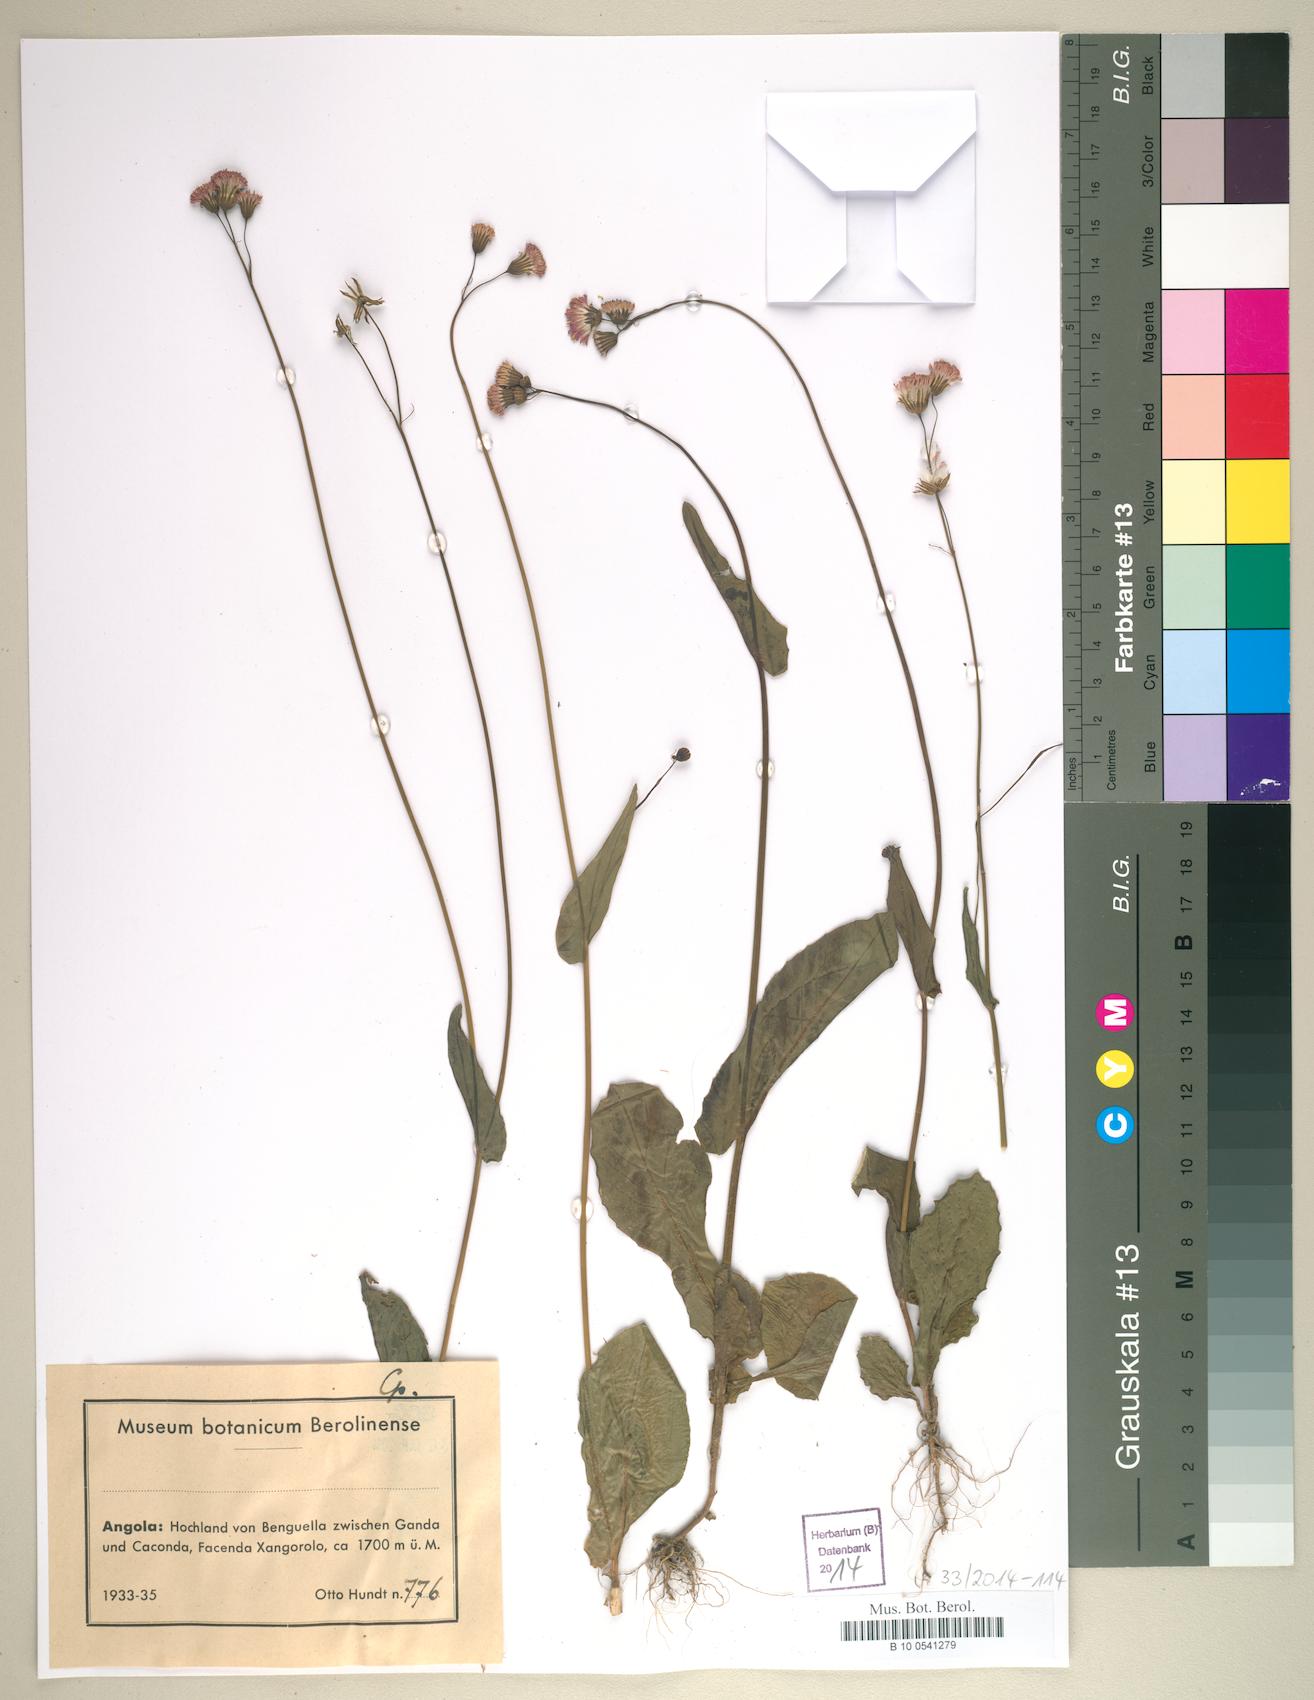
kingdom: Plantae
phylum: Tracheophyta
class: Magnoliopsida
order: Asterales
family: Asteraceae
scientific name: Asteraceae
